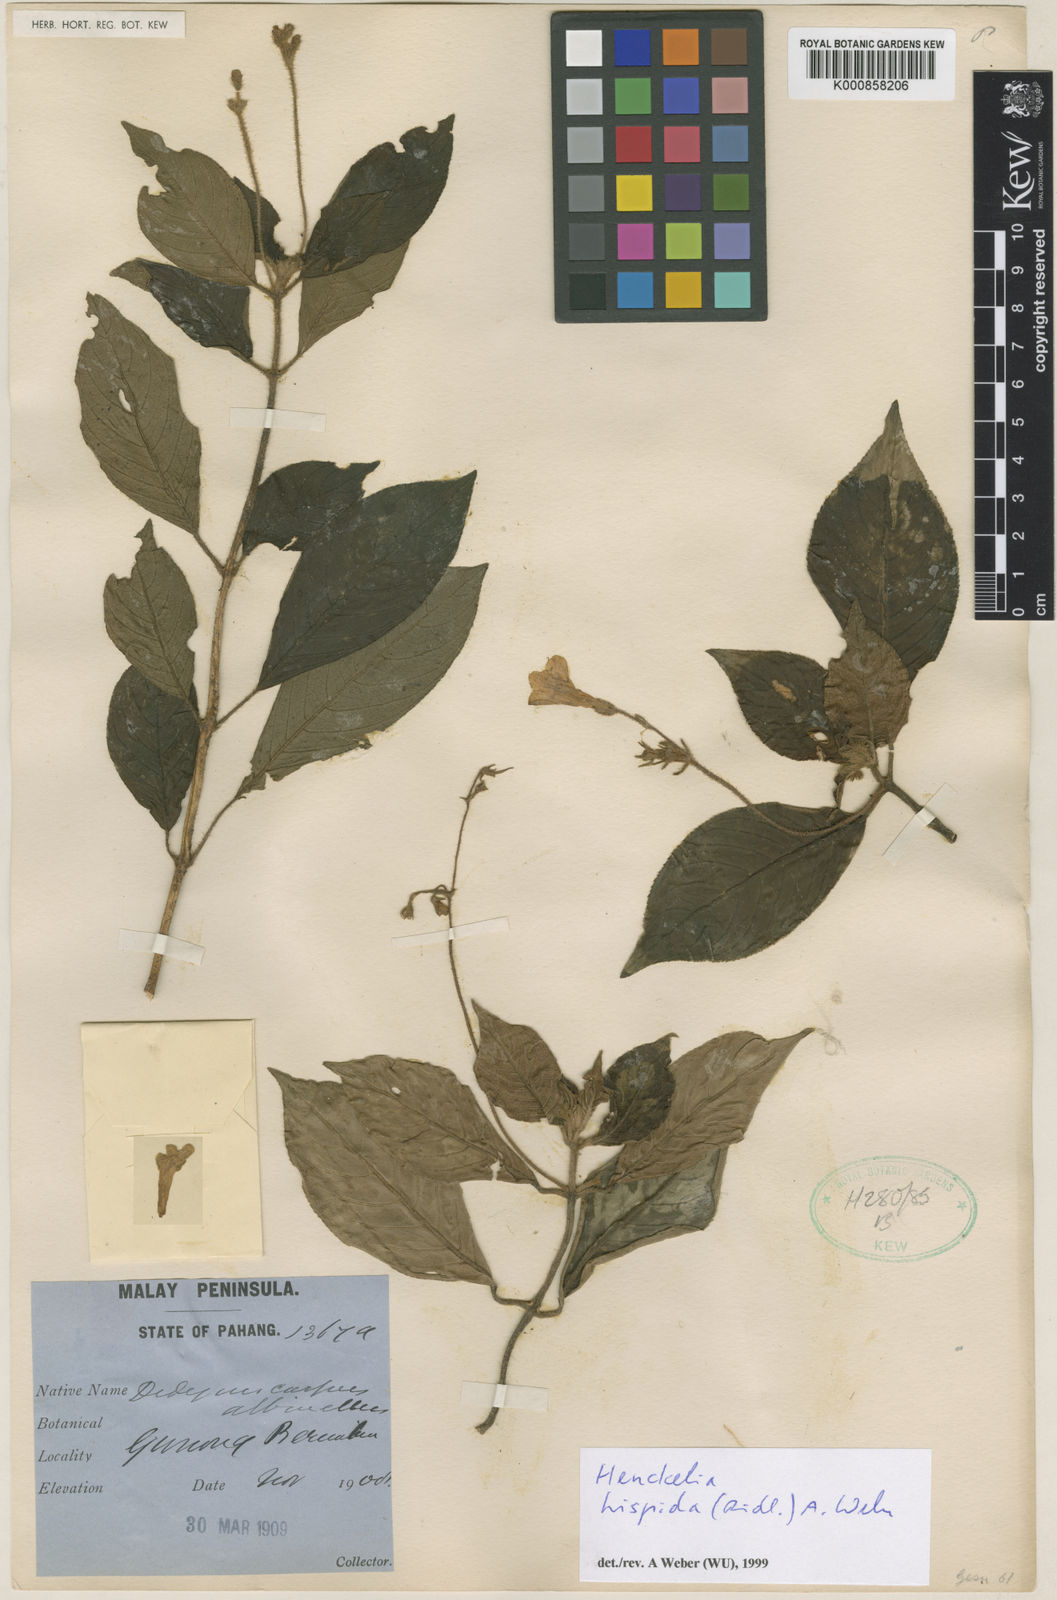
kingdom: Plantae
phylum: Tracheophyta
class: Magnoliopsida
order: Lamiales
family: Gesneriaceae
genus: Codonoboea
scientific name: Codonoboea hispida
